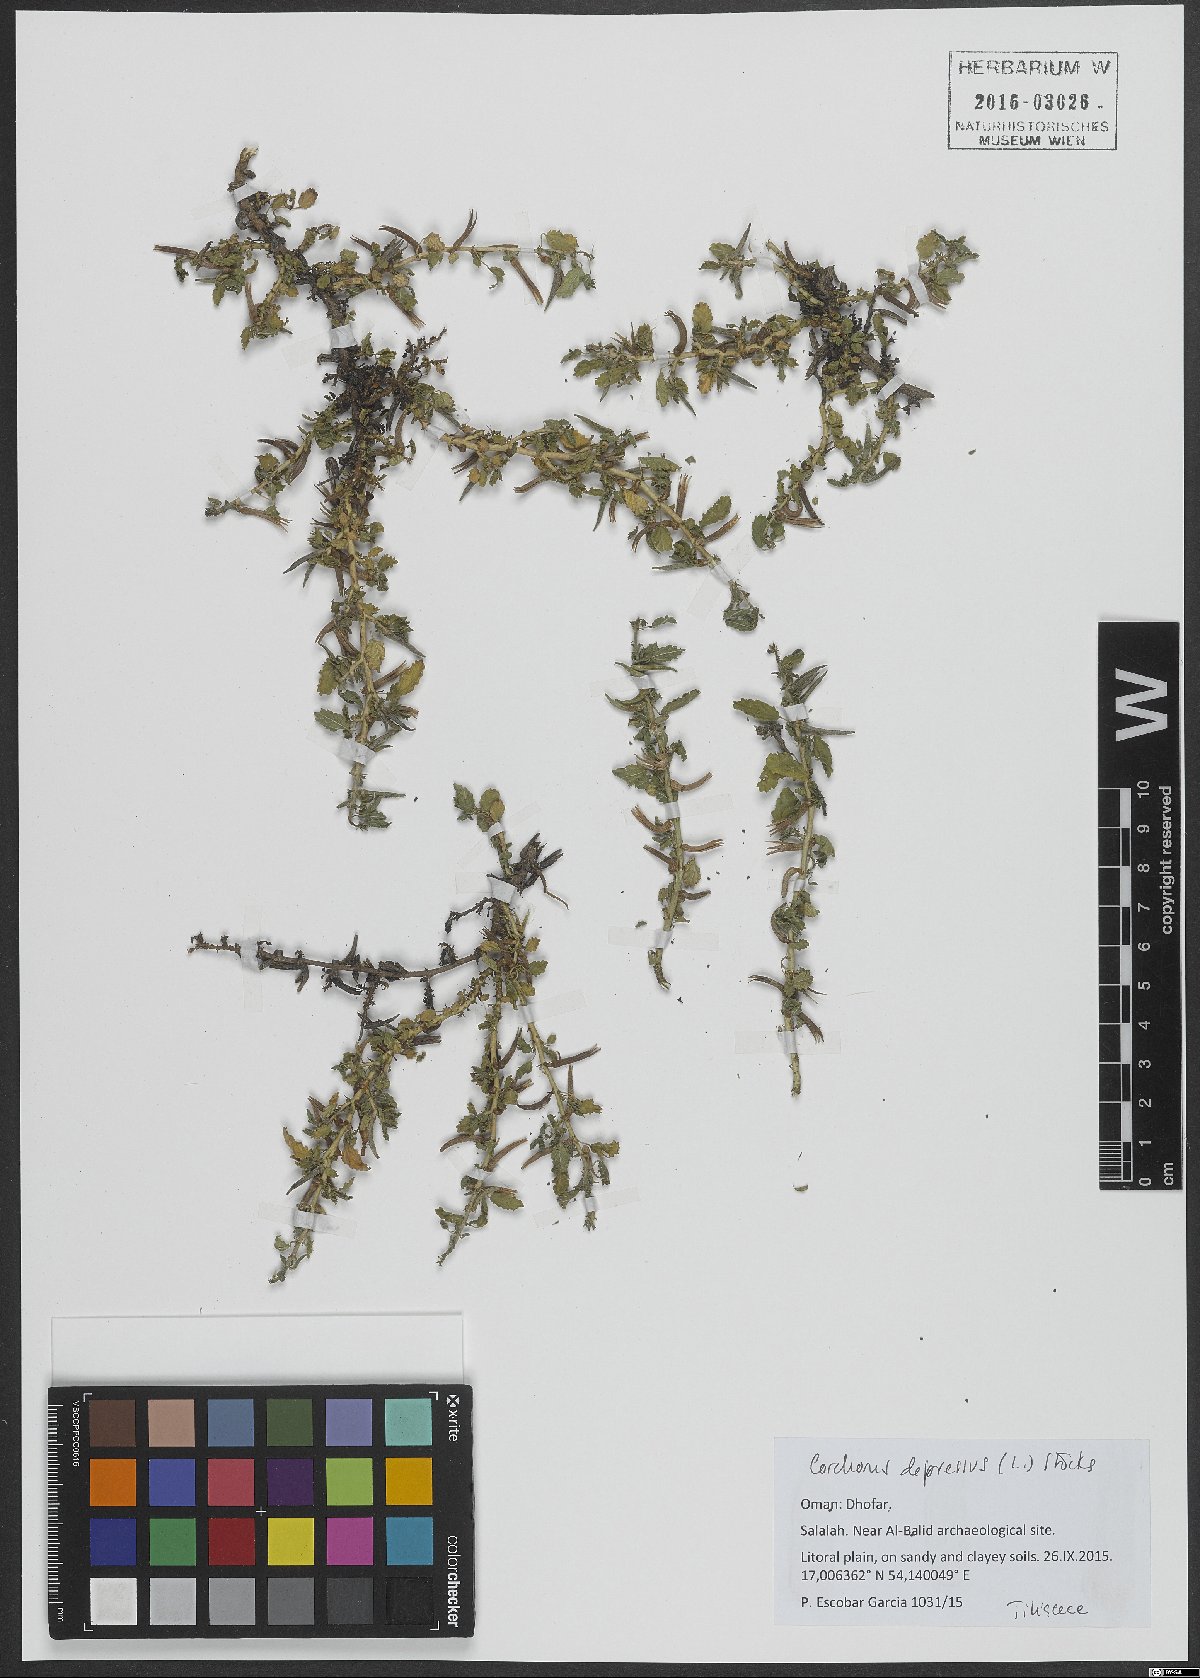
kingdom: Plantae
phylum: Tracheophyta
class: Magnoliopsida
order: Malvales
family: Malvaceae
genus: Corchorus
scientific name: Corchorus depressus
